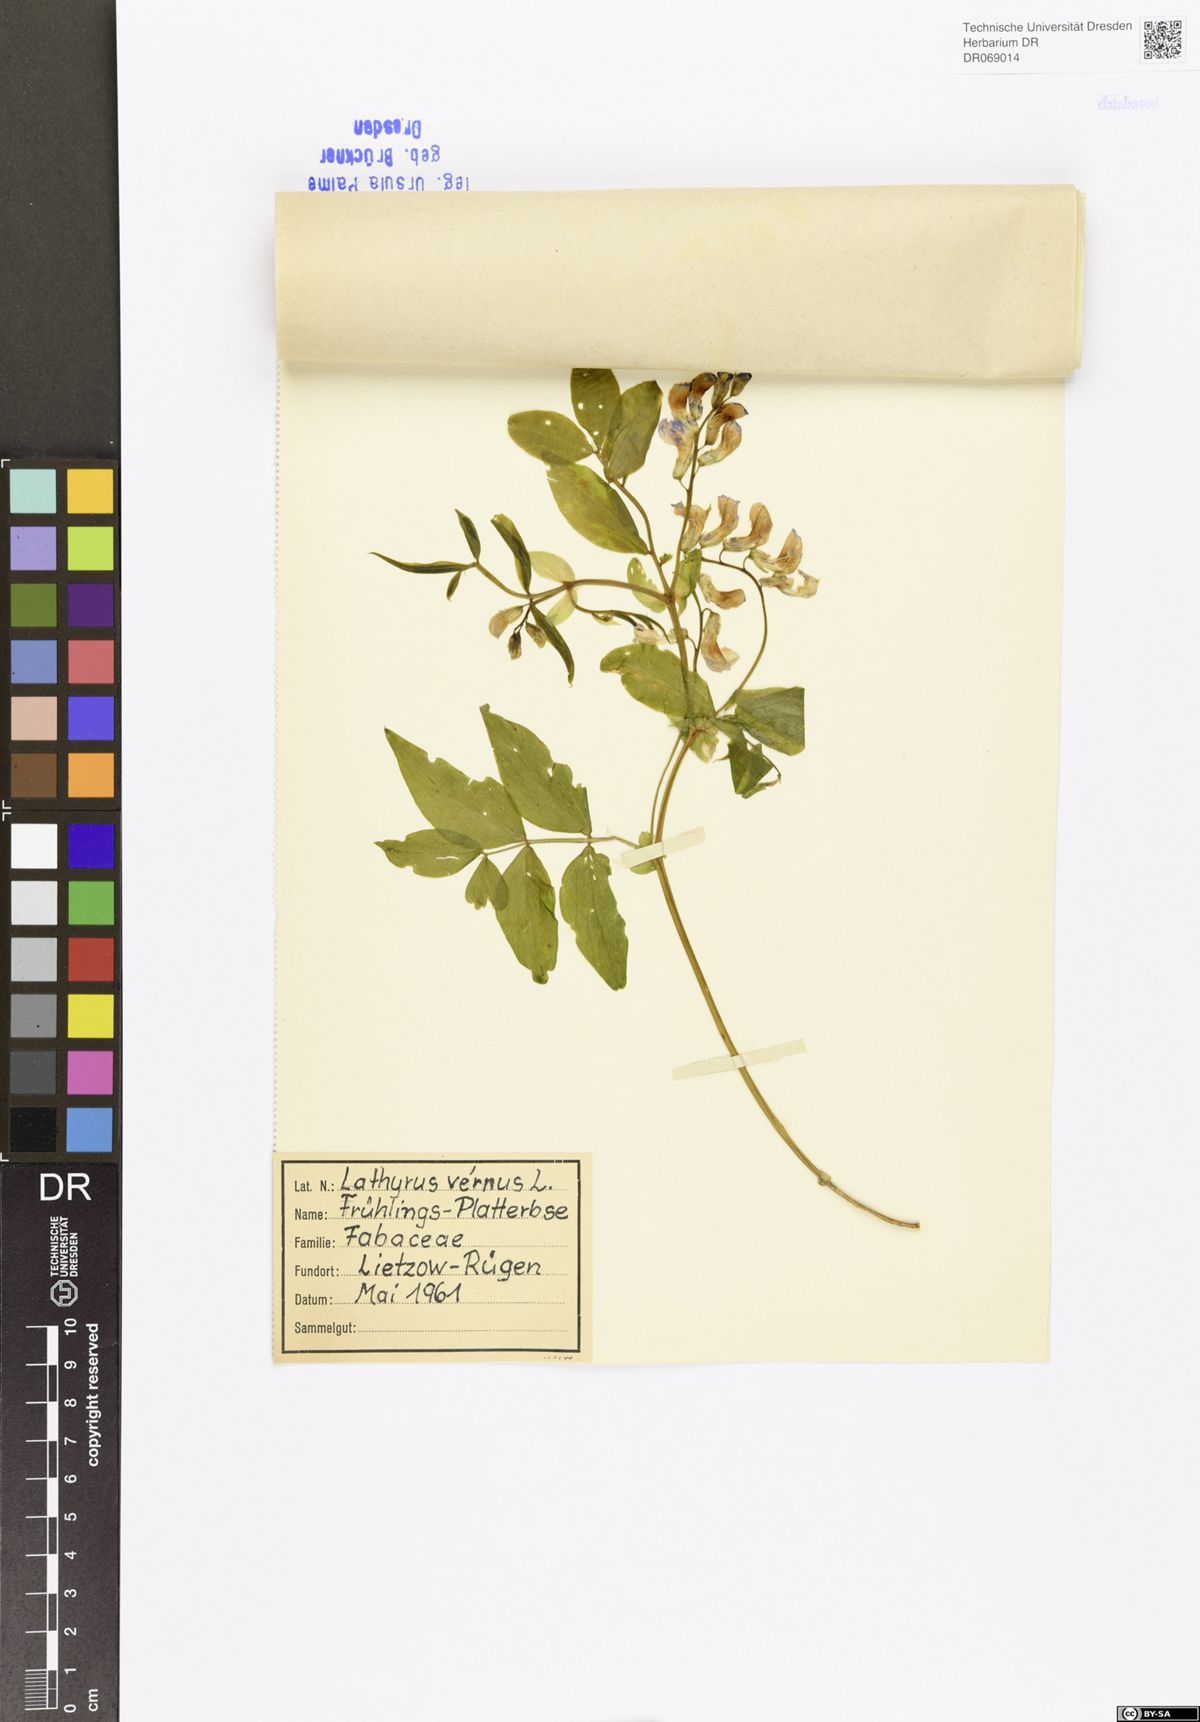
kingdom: Plantae
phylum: Tracheophyta
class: Magnoliopsida
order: Fabales
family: Fabaceae
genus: Lathyrus
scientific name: Lathyrus vernus
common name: Spring pea
